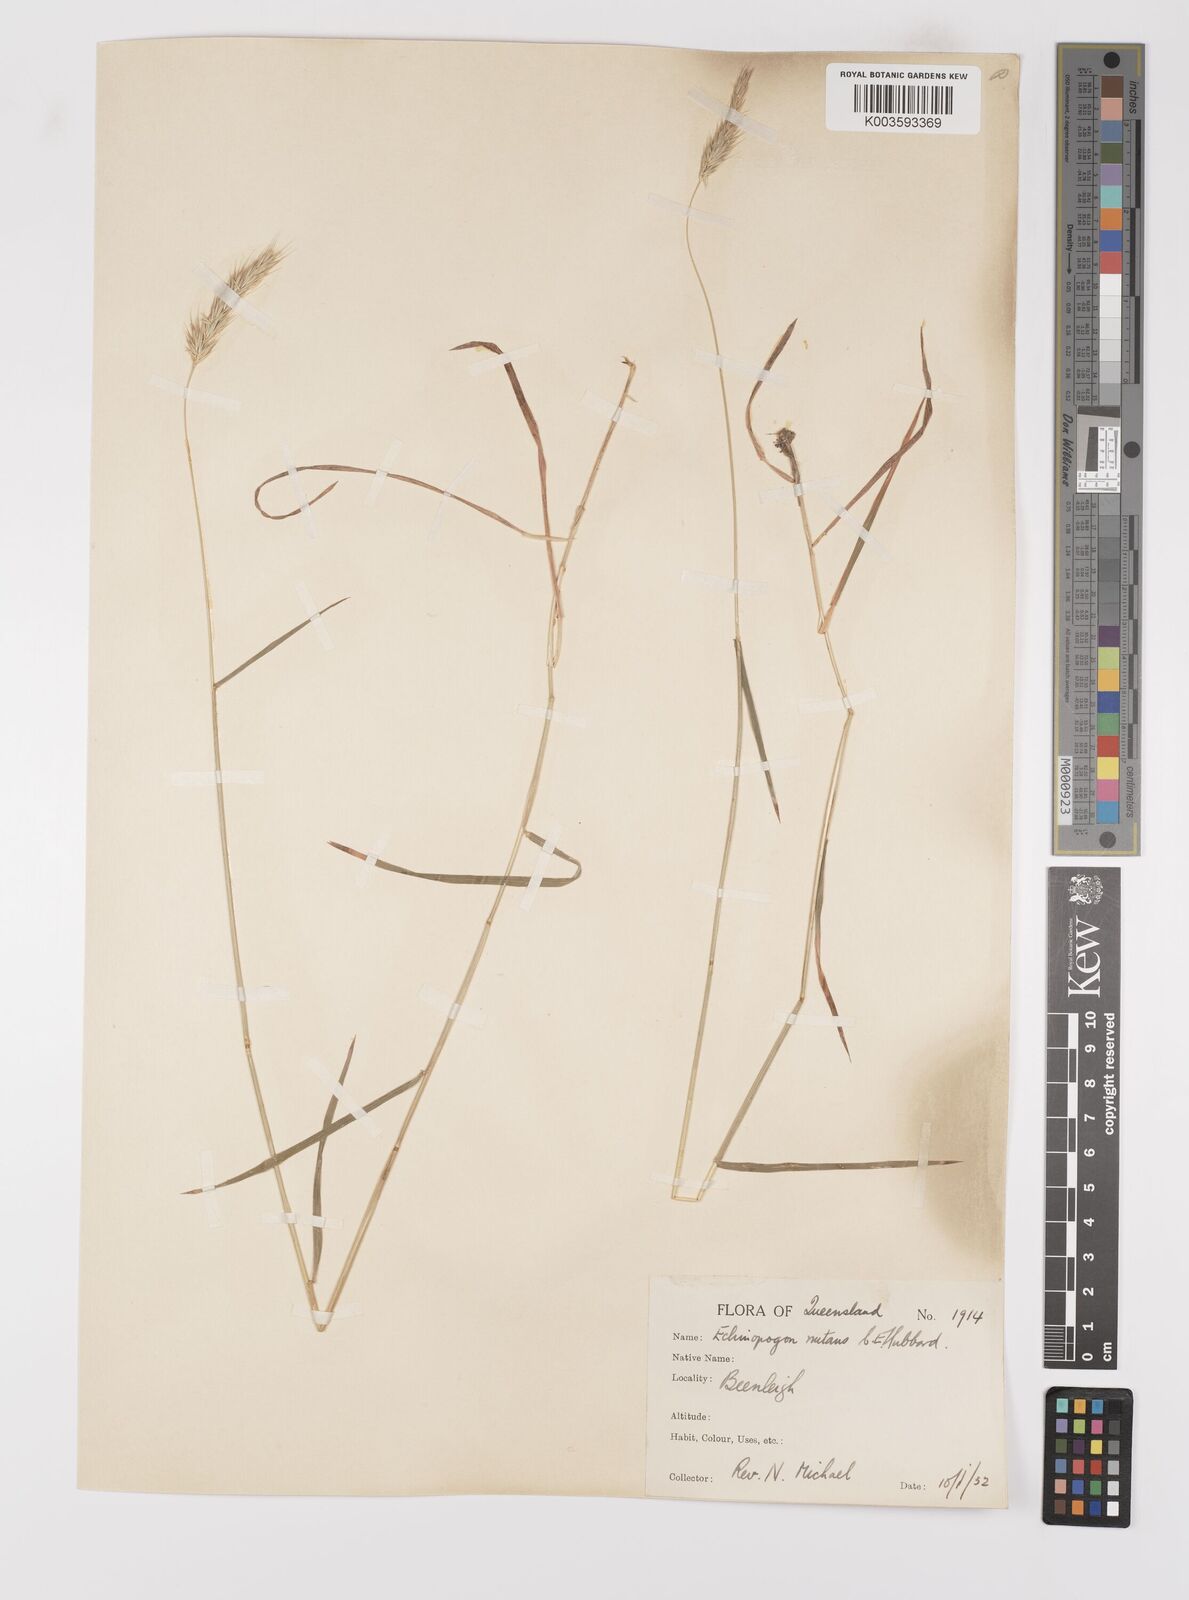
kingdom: Plantae
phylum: Tracheophyta
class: Liliopsida
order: Poales
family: Poaceae
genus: Echinopogon
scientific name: Echinopogon nutans
